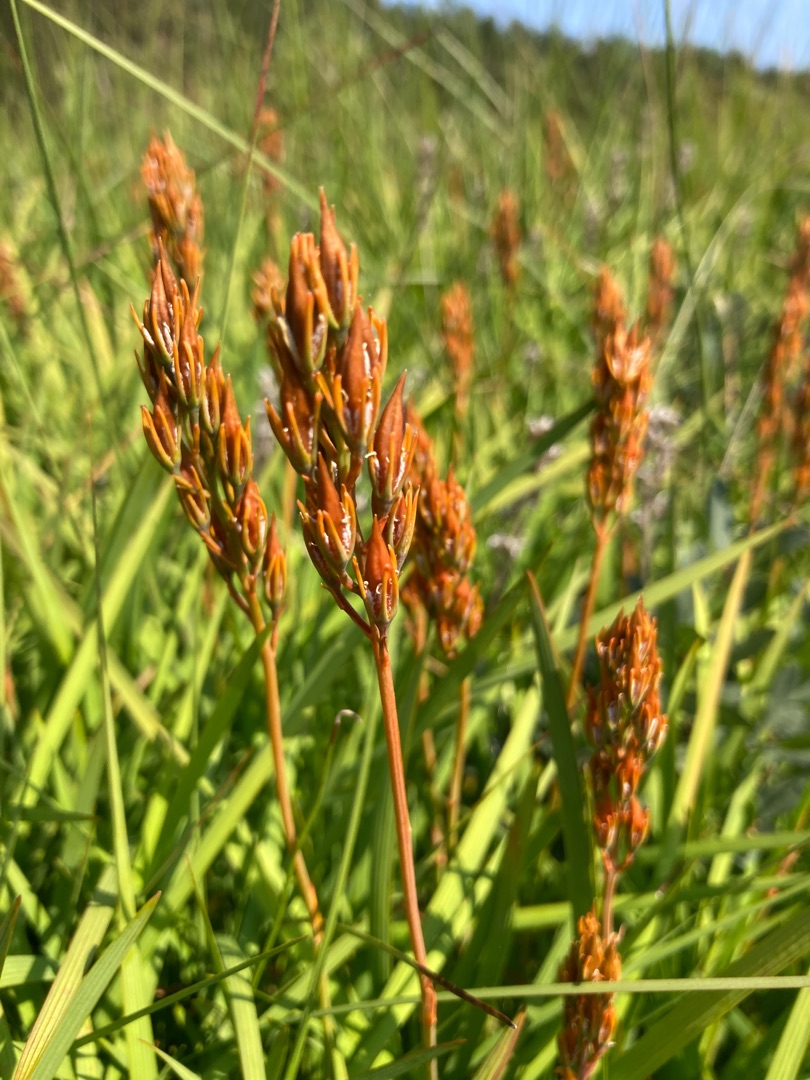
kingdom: Plantae
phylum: Tracheophyta
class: Liliopsida
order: Dioscoreales
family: Nartheciaceae
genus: Narthecium
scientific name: Narthecium ossifragum
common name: Benbræk
